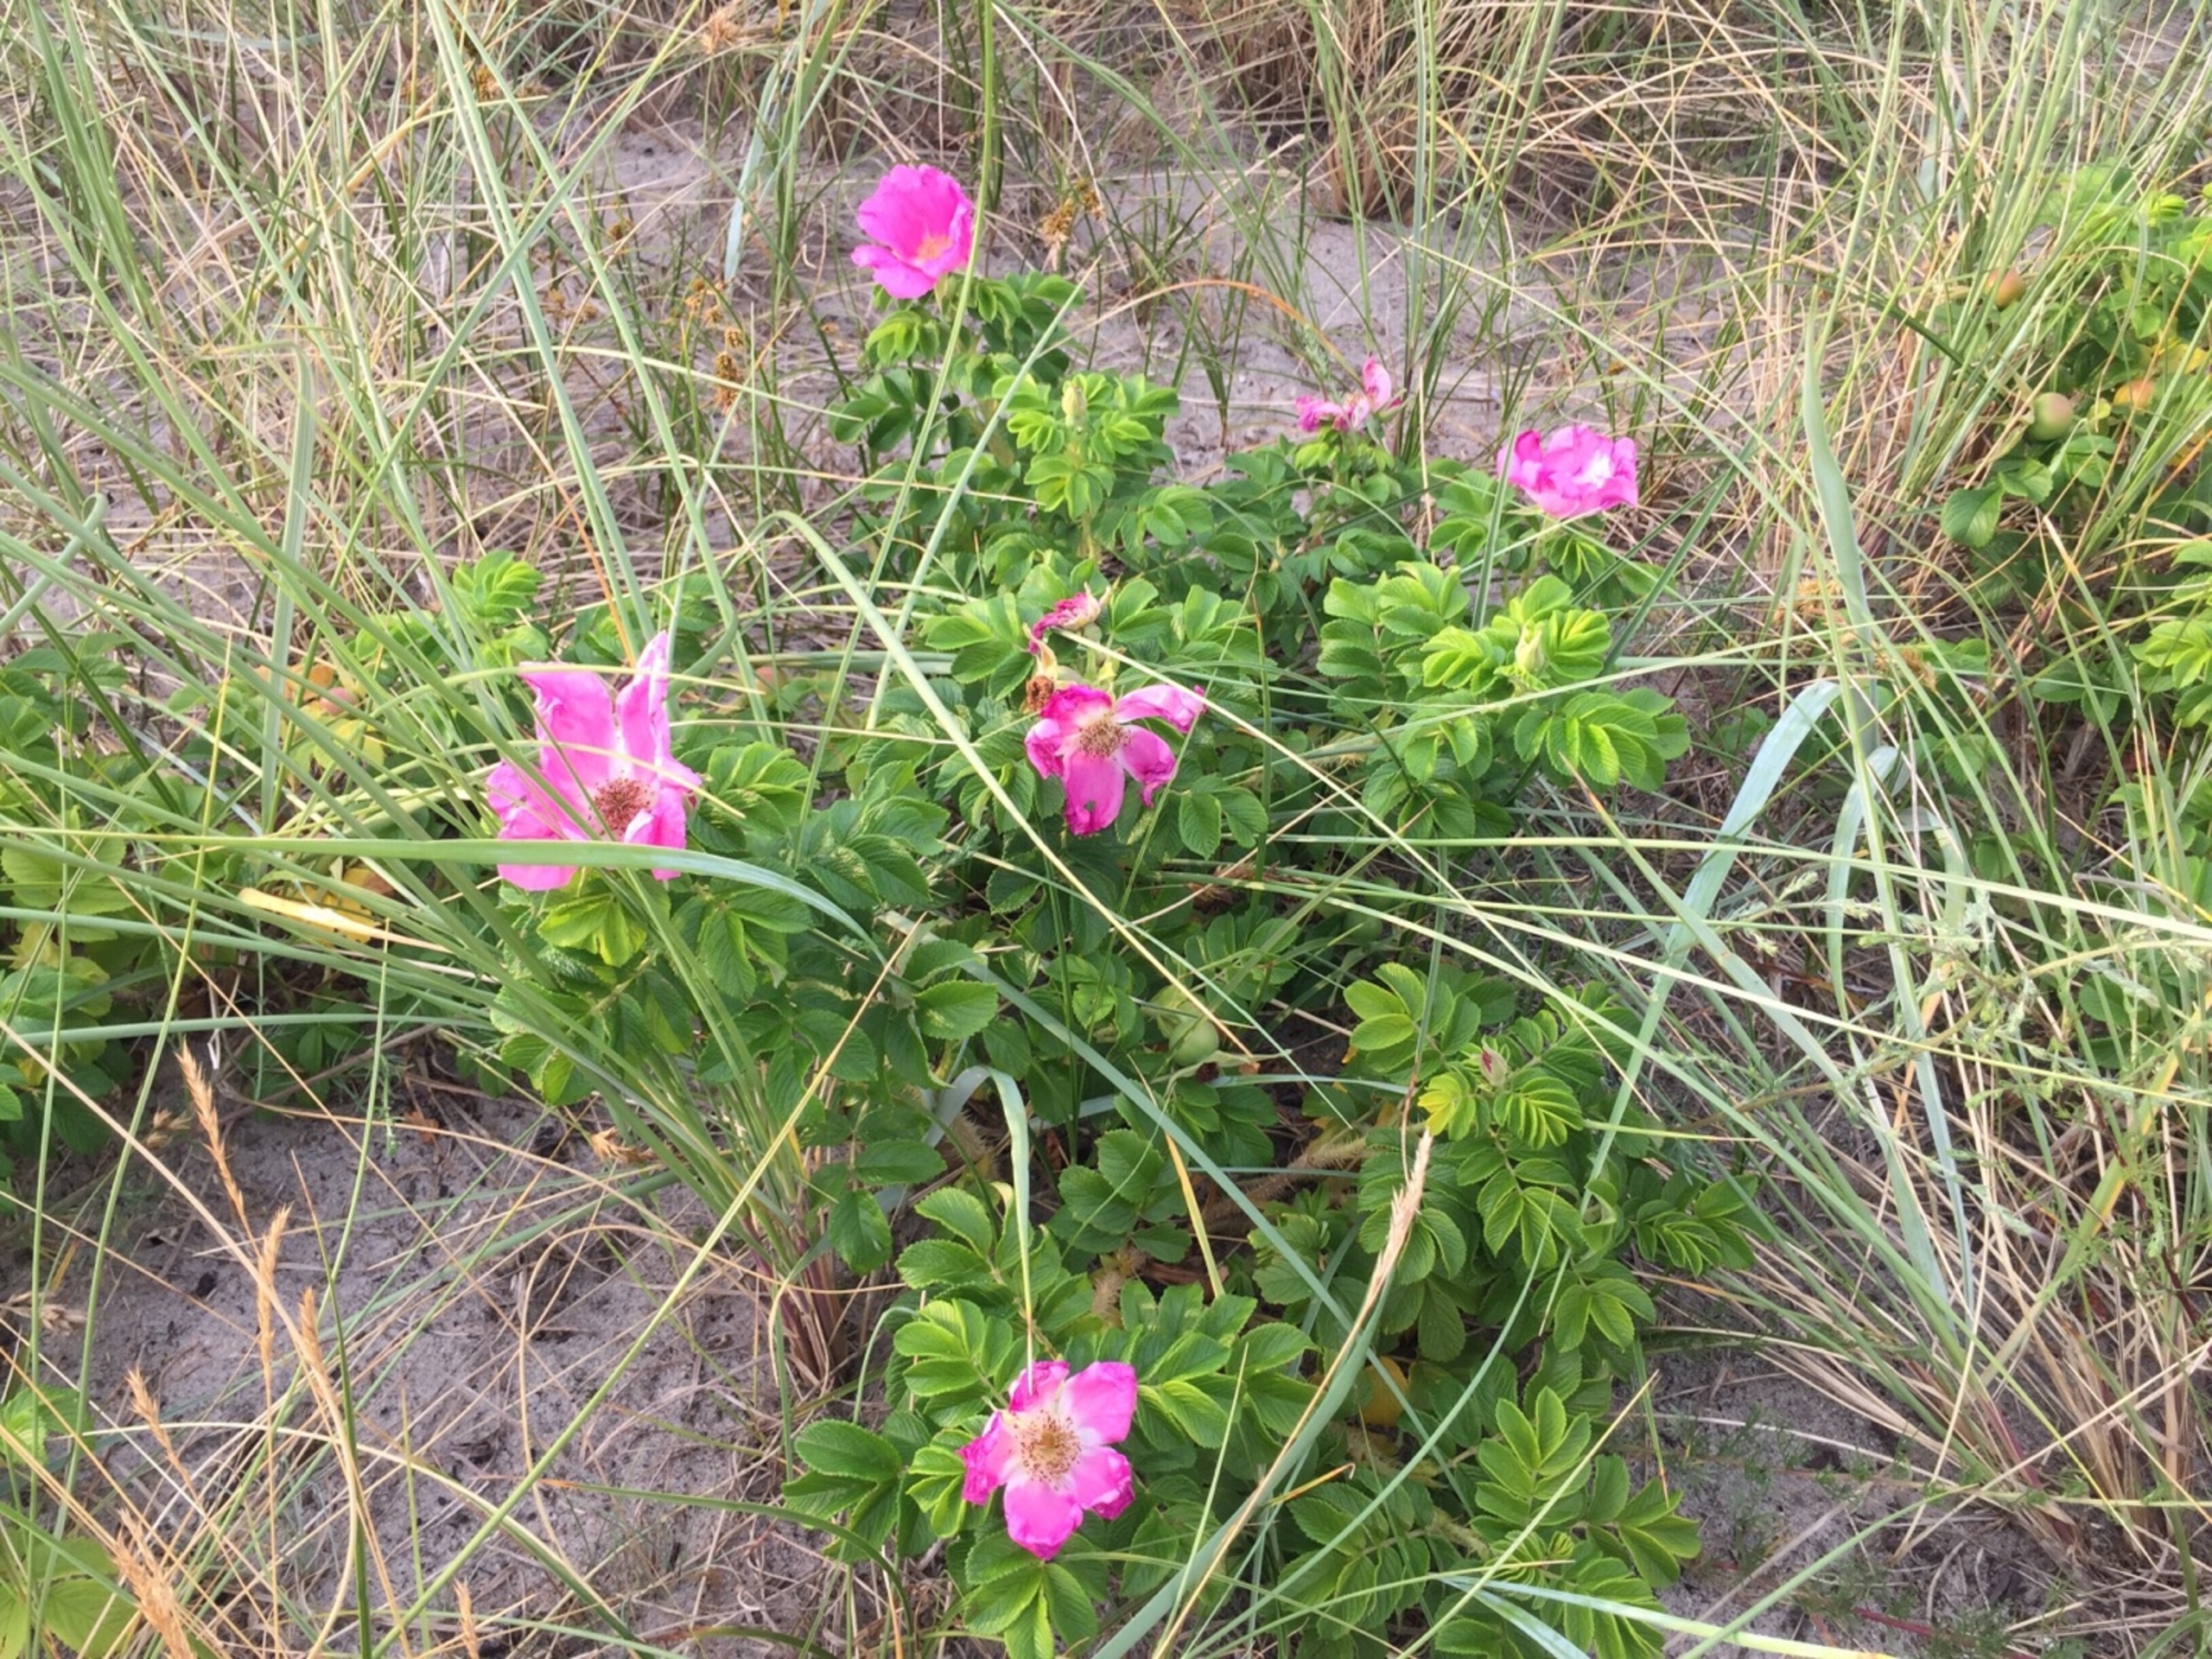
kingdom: Plantae
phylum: Tracheophyta
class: Magnoliopsida
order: Rosales
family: Rosaceae
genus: Rosa
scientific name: Rosa rugosa
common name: Rynket rose
